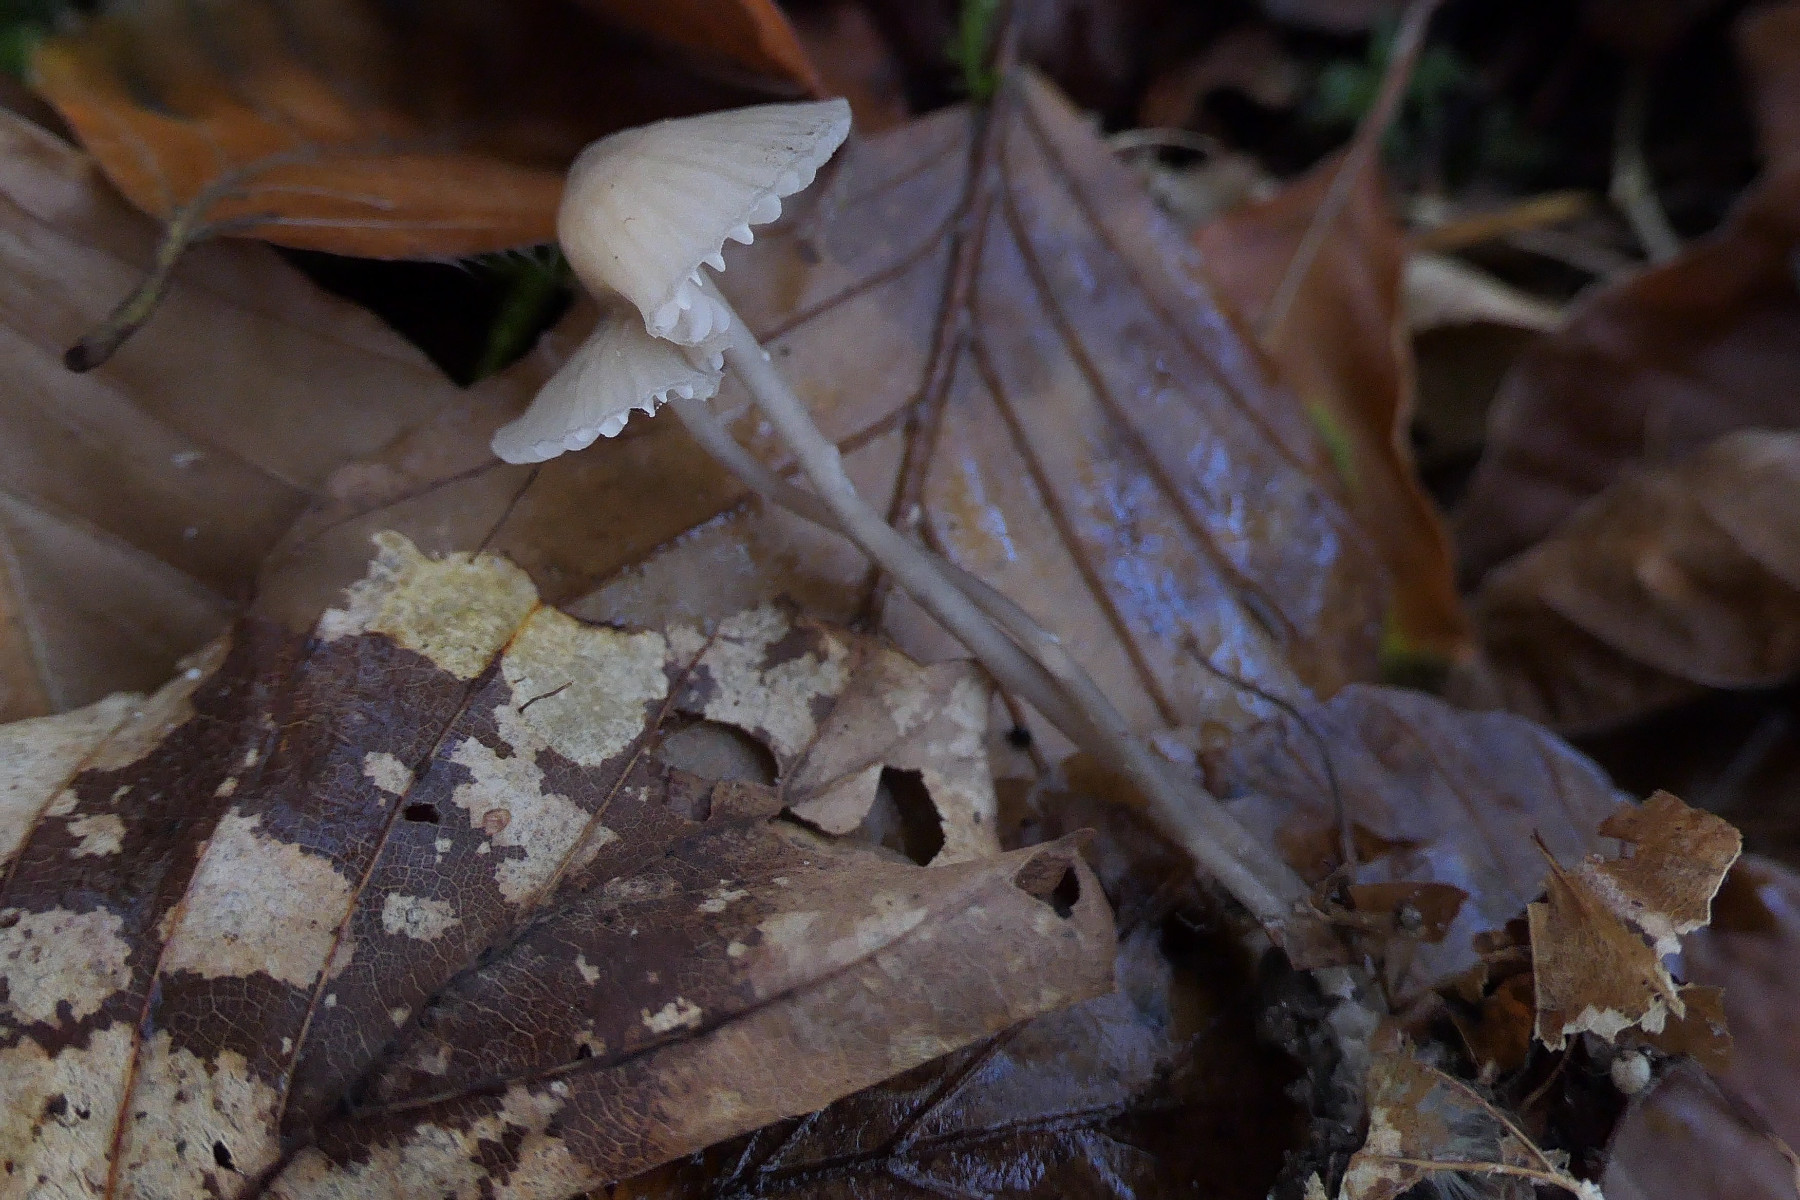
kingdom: Fungi
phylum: Basidiomycota
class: Agaricomycetes
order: Agaricales
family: Mycenaceae
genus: Mycena
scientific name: Mycena galopus
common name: hvidmælket huesvamp
